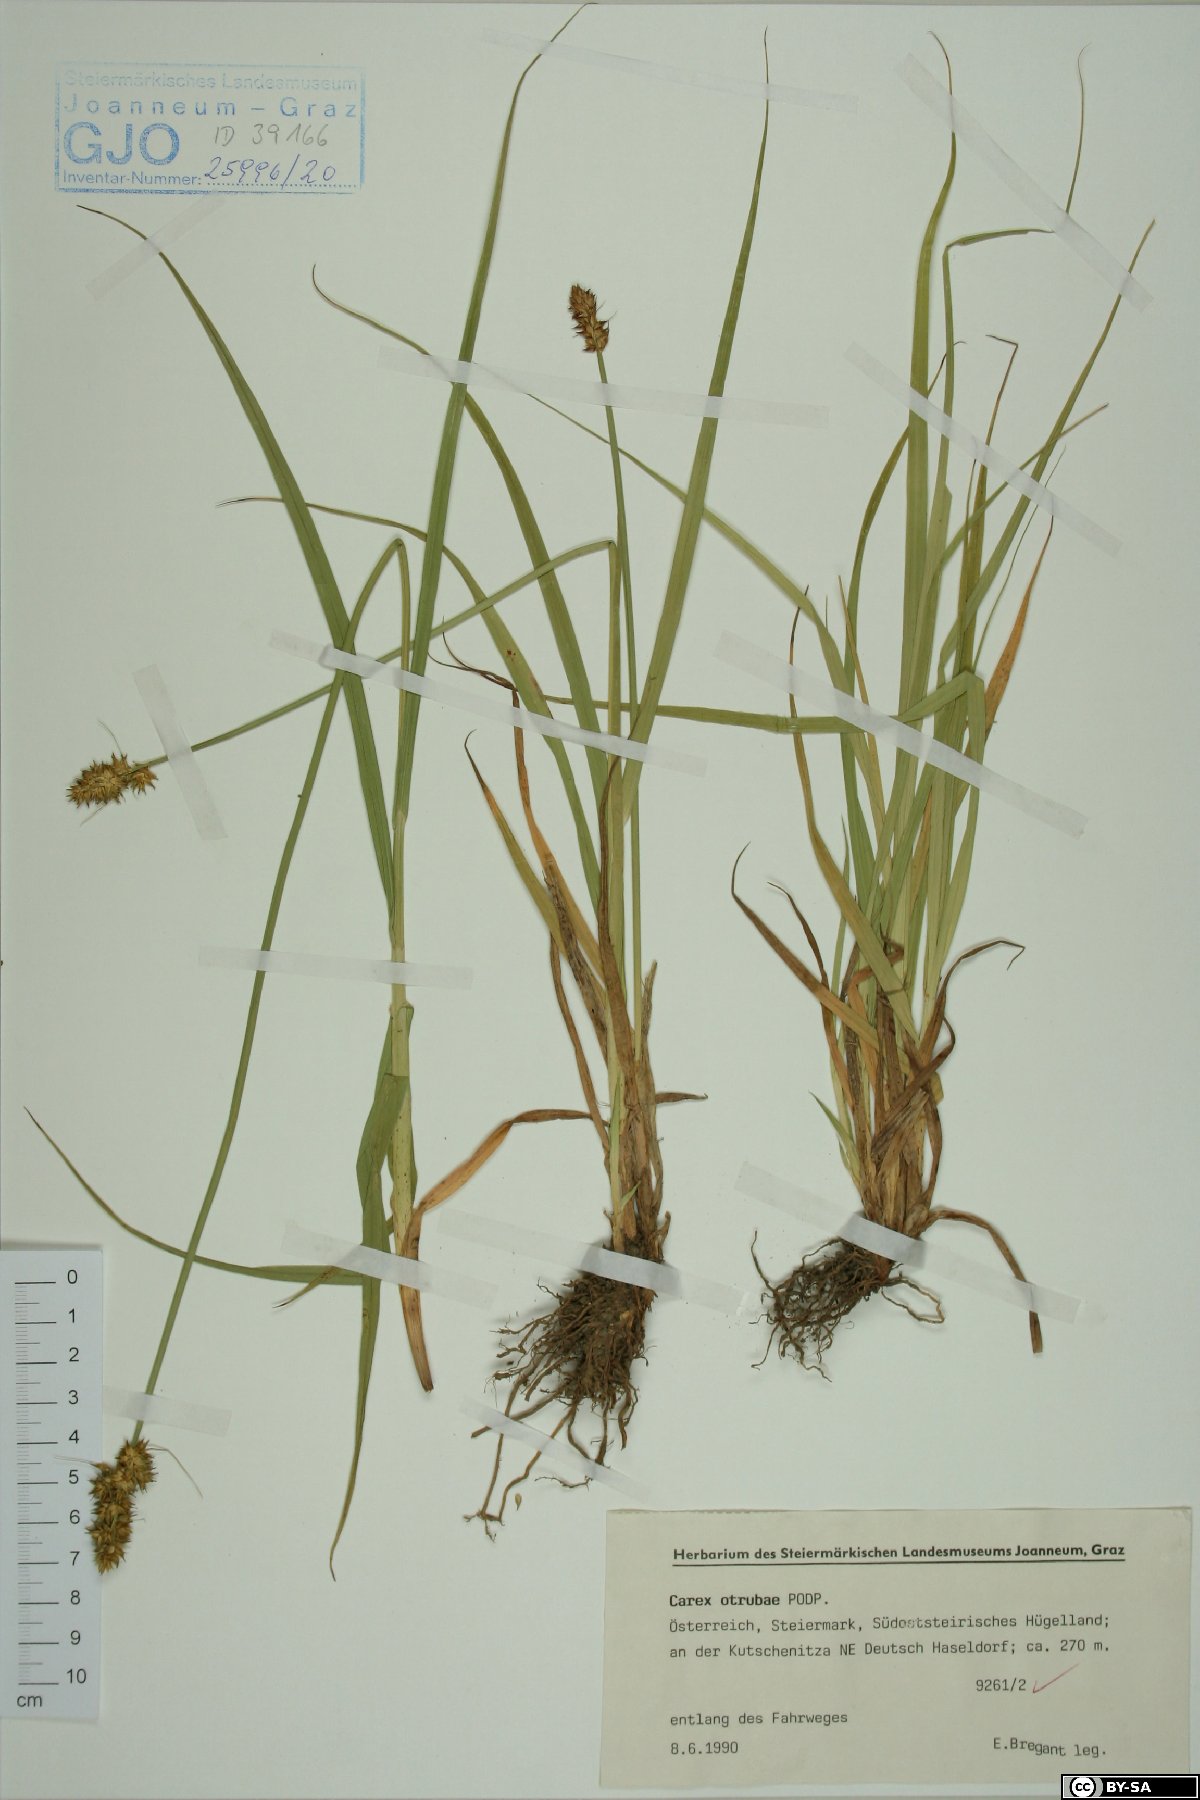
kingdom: Plantae
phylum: Tracheophyta
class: Liliopsida
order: Poales
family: Cyperaceae
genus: Carex
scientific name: Carex otrubae
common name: False fox-sedge
